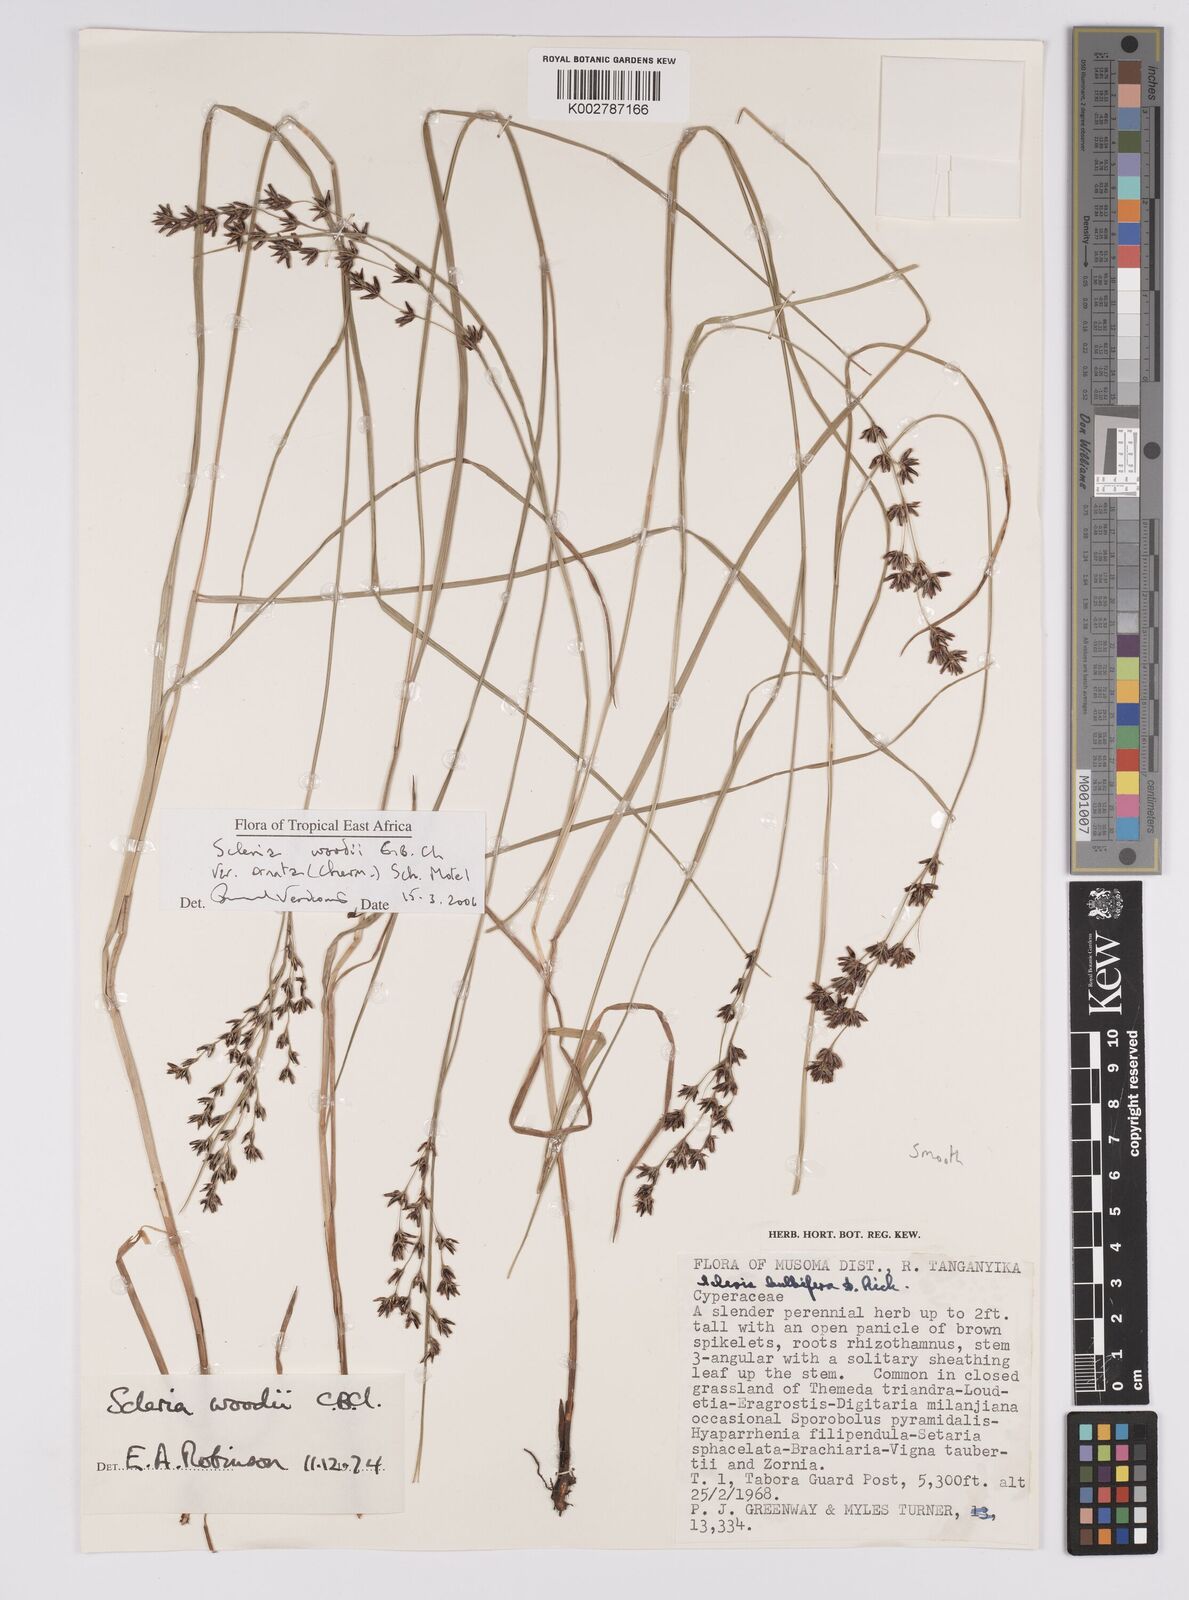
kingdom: Plantae
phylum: Tracheophyta
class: Liliopsida
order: Poales
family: Cyperaceae
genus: Scleria
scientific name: Scleria woodii
